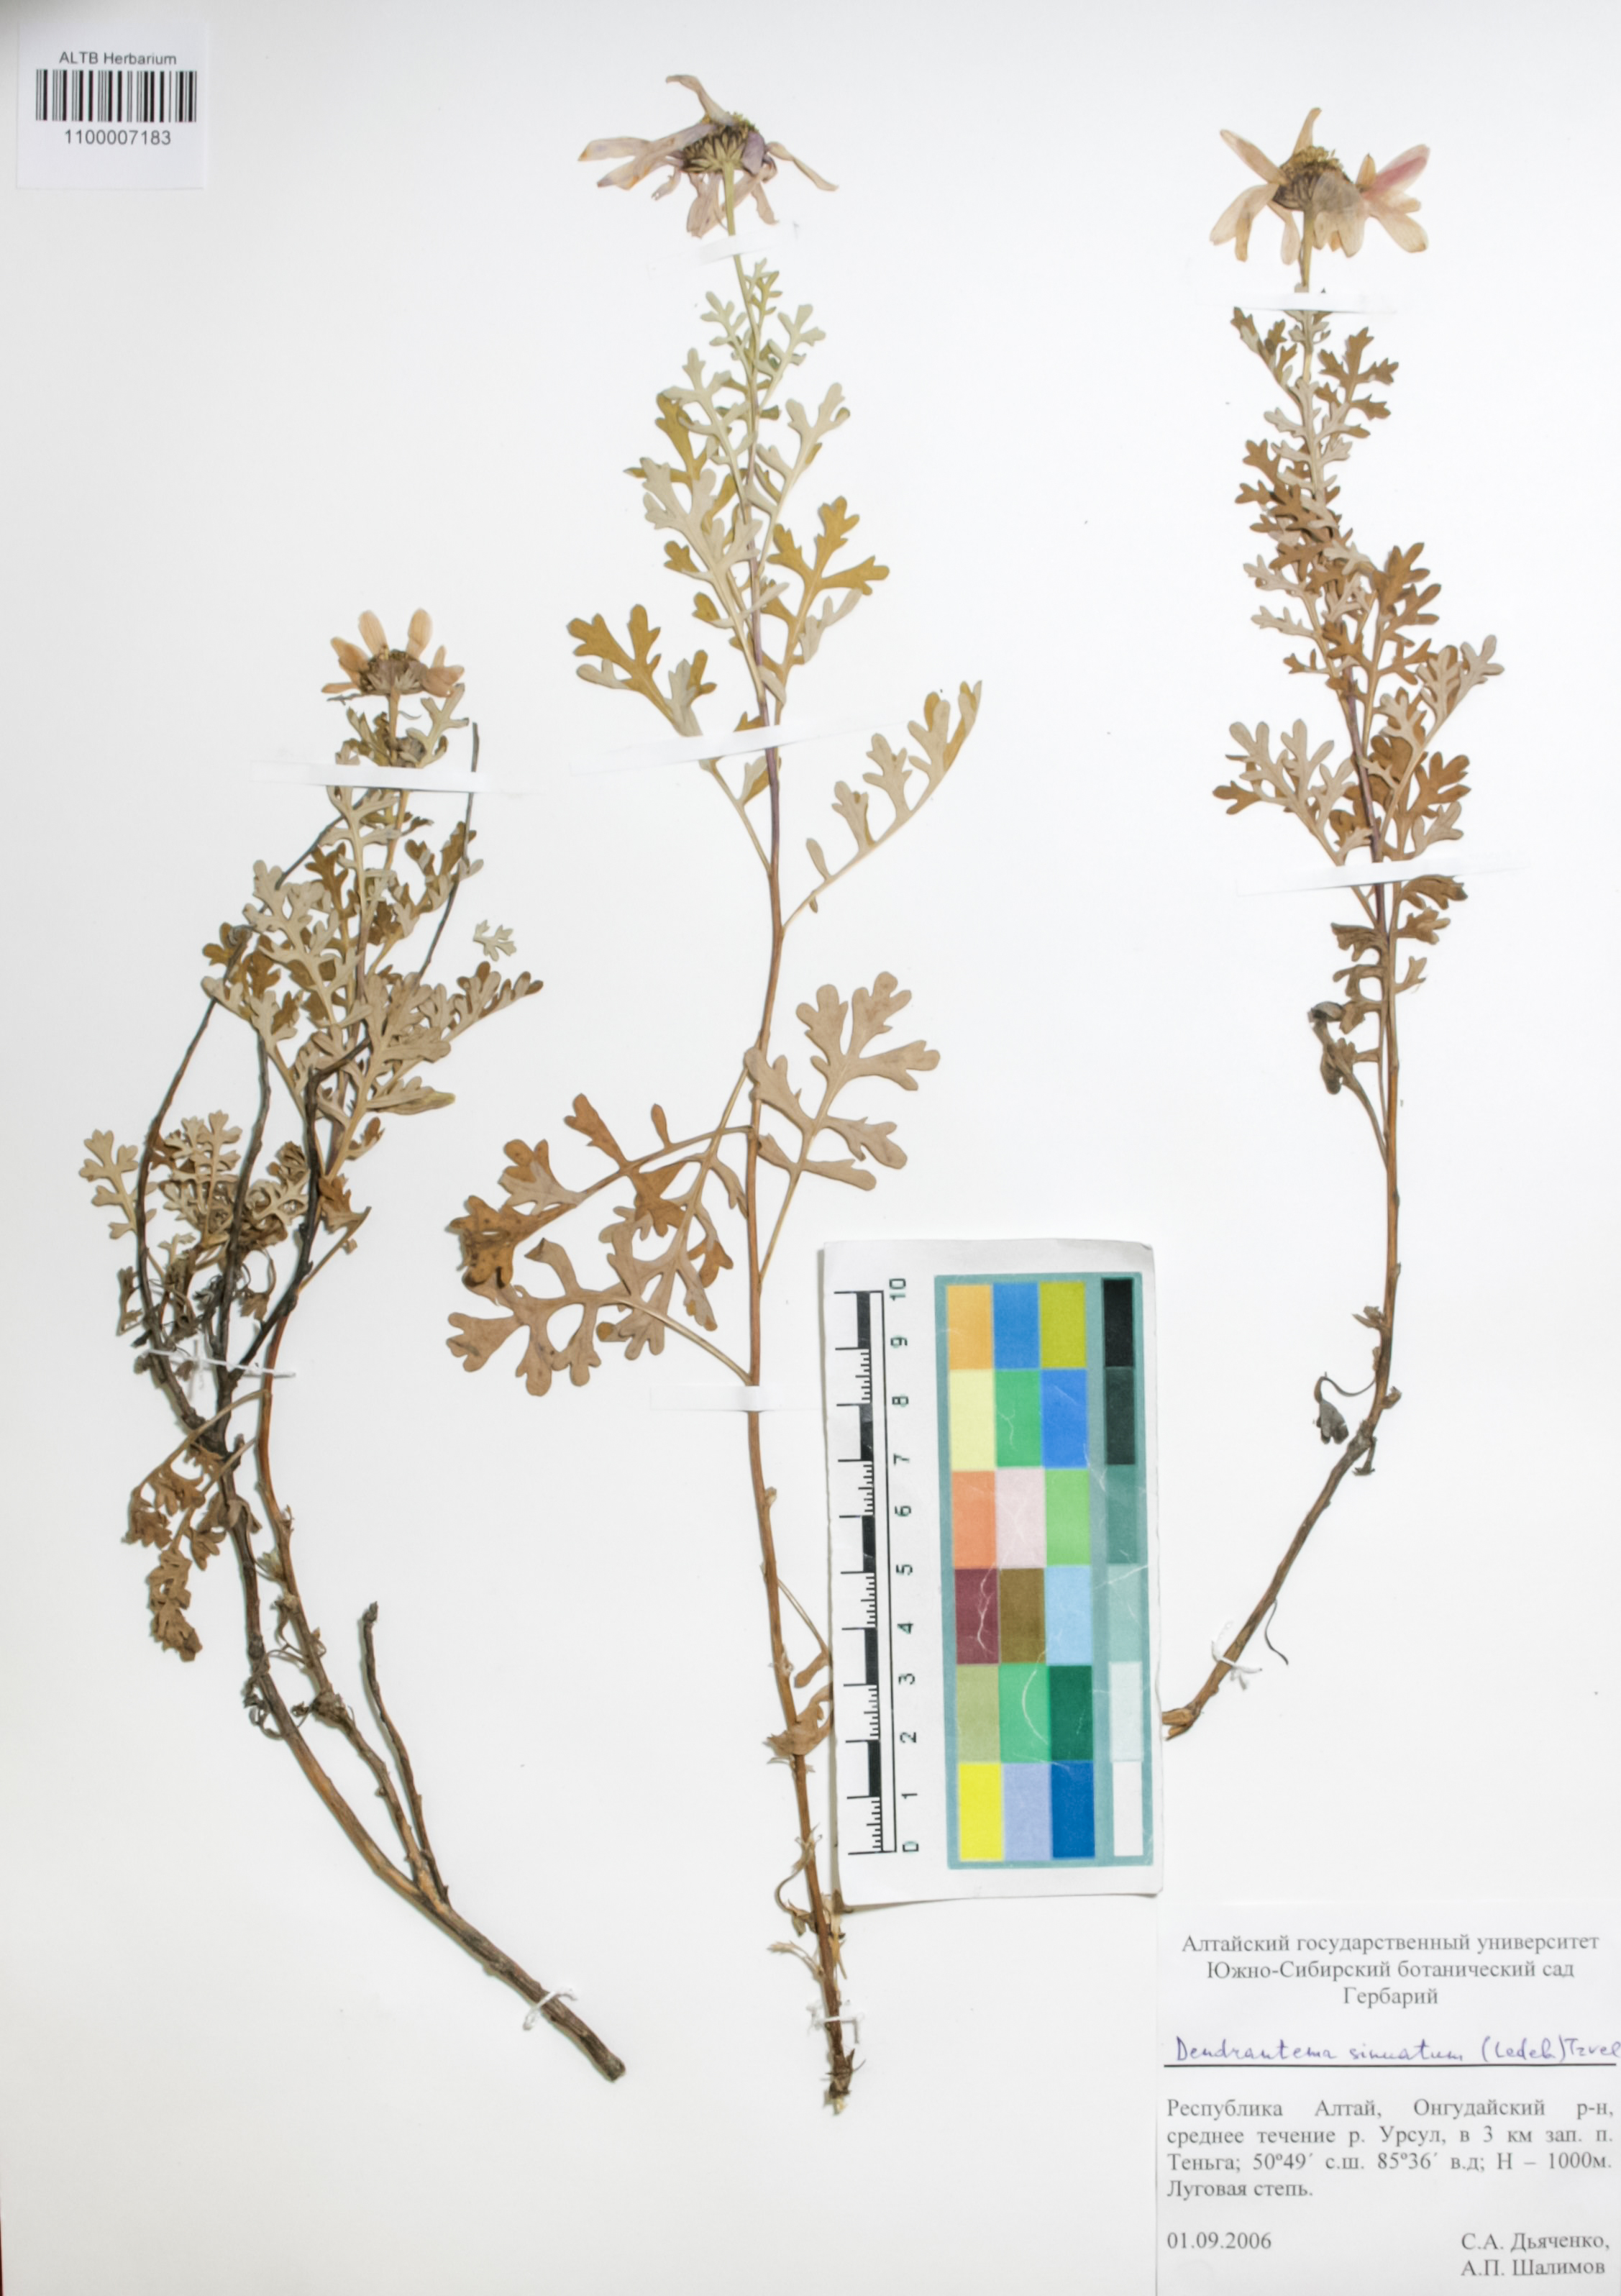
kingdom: Plantae
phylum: Tracheophyta
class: Magnoliopsida
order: Asterales
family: Asteraceae
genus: Chrysanthemum
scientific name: Chrysanthemum sinuatum
